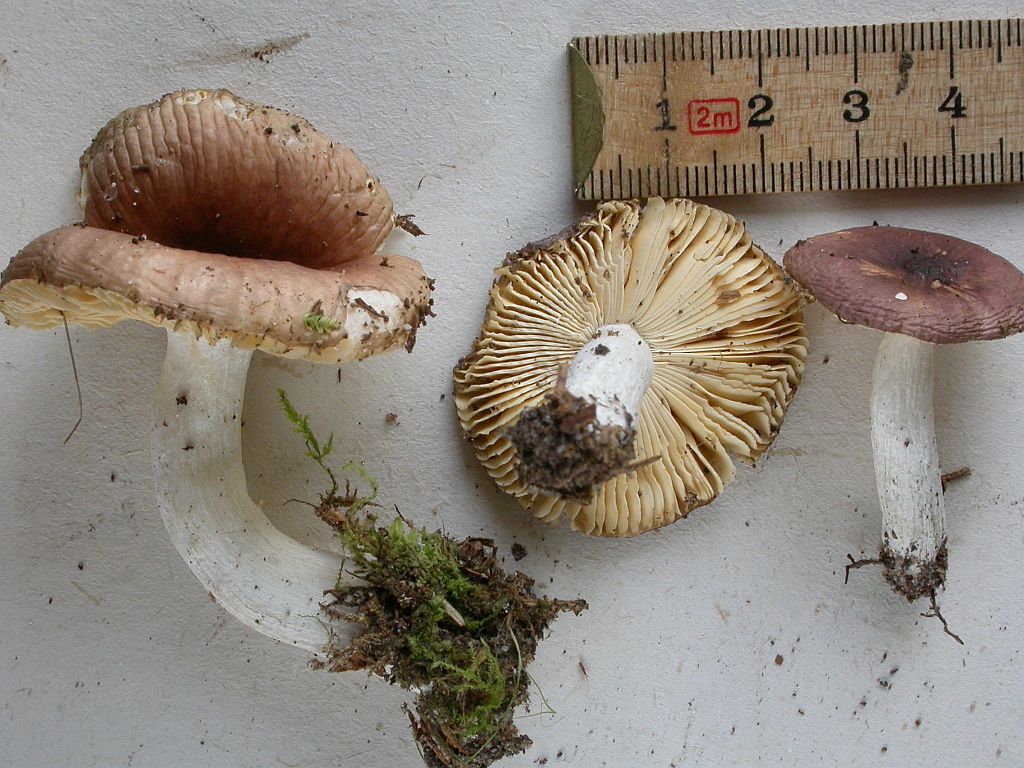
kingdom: Fungi
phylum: Basidiomycota
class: Agaricomycetes
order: Russulales
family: Russulaceae
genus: Russula
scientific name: Russula nauseosa
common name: spinkel skørhat
